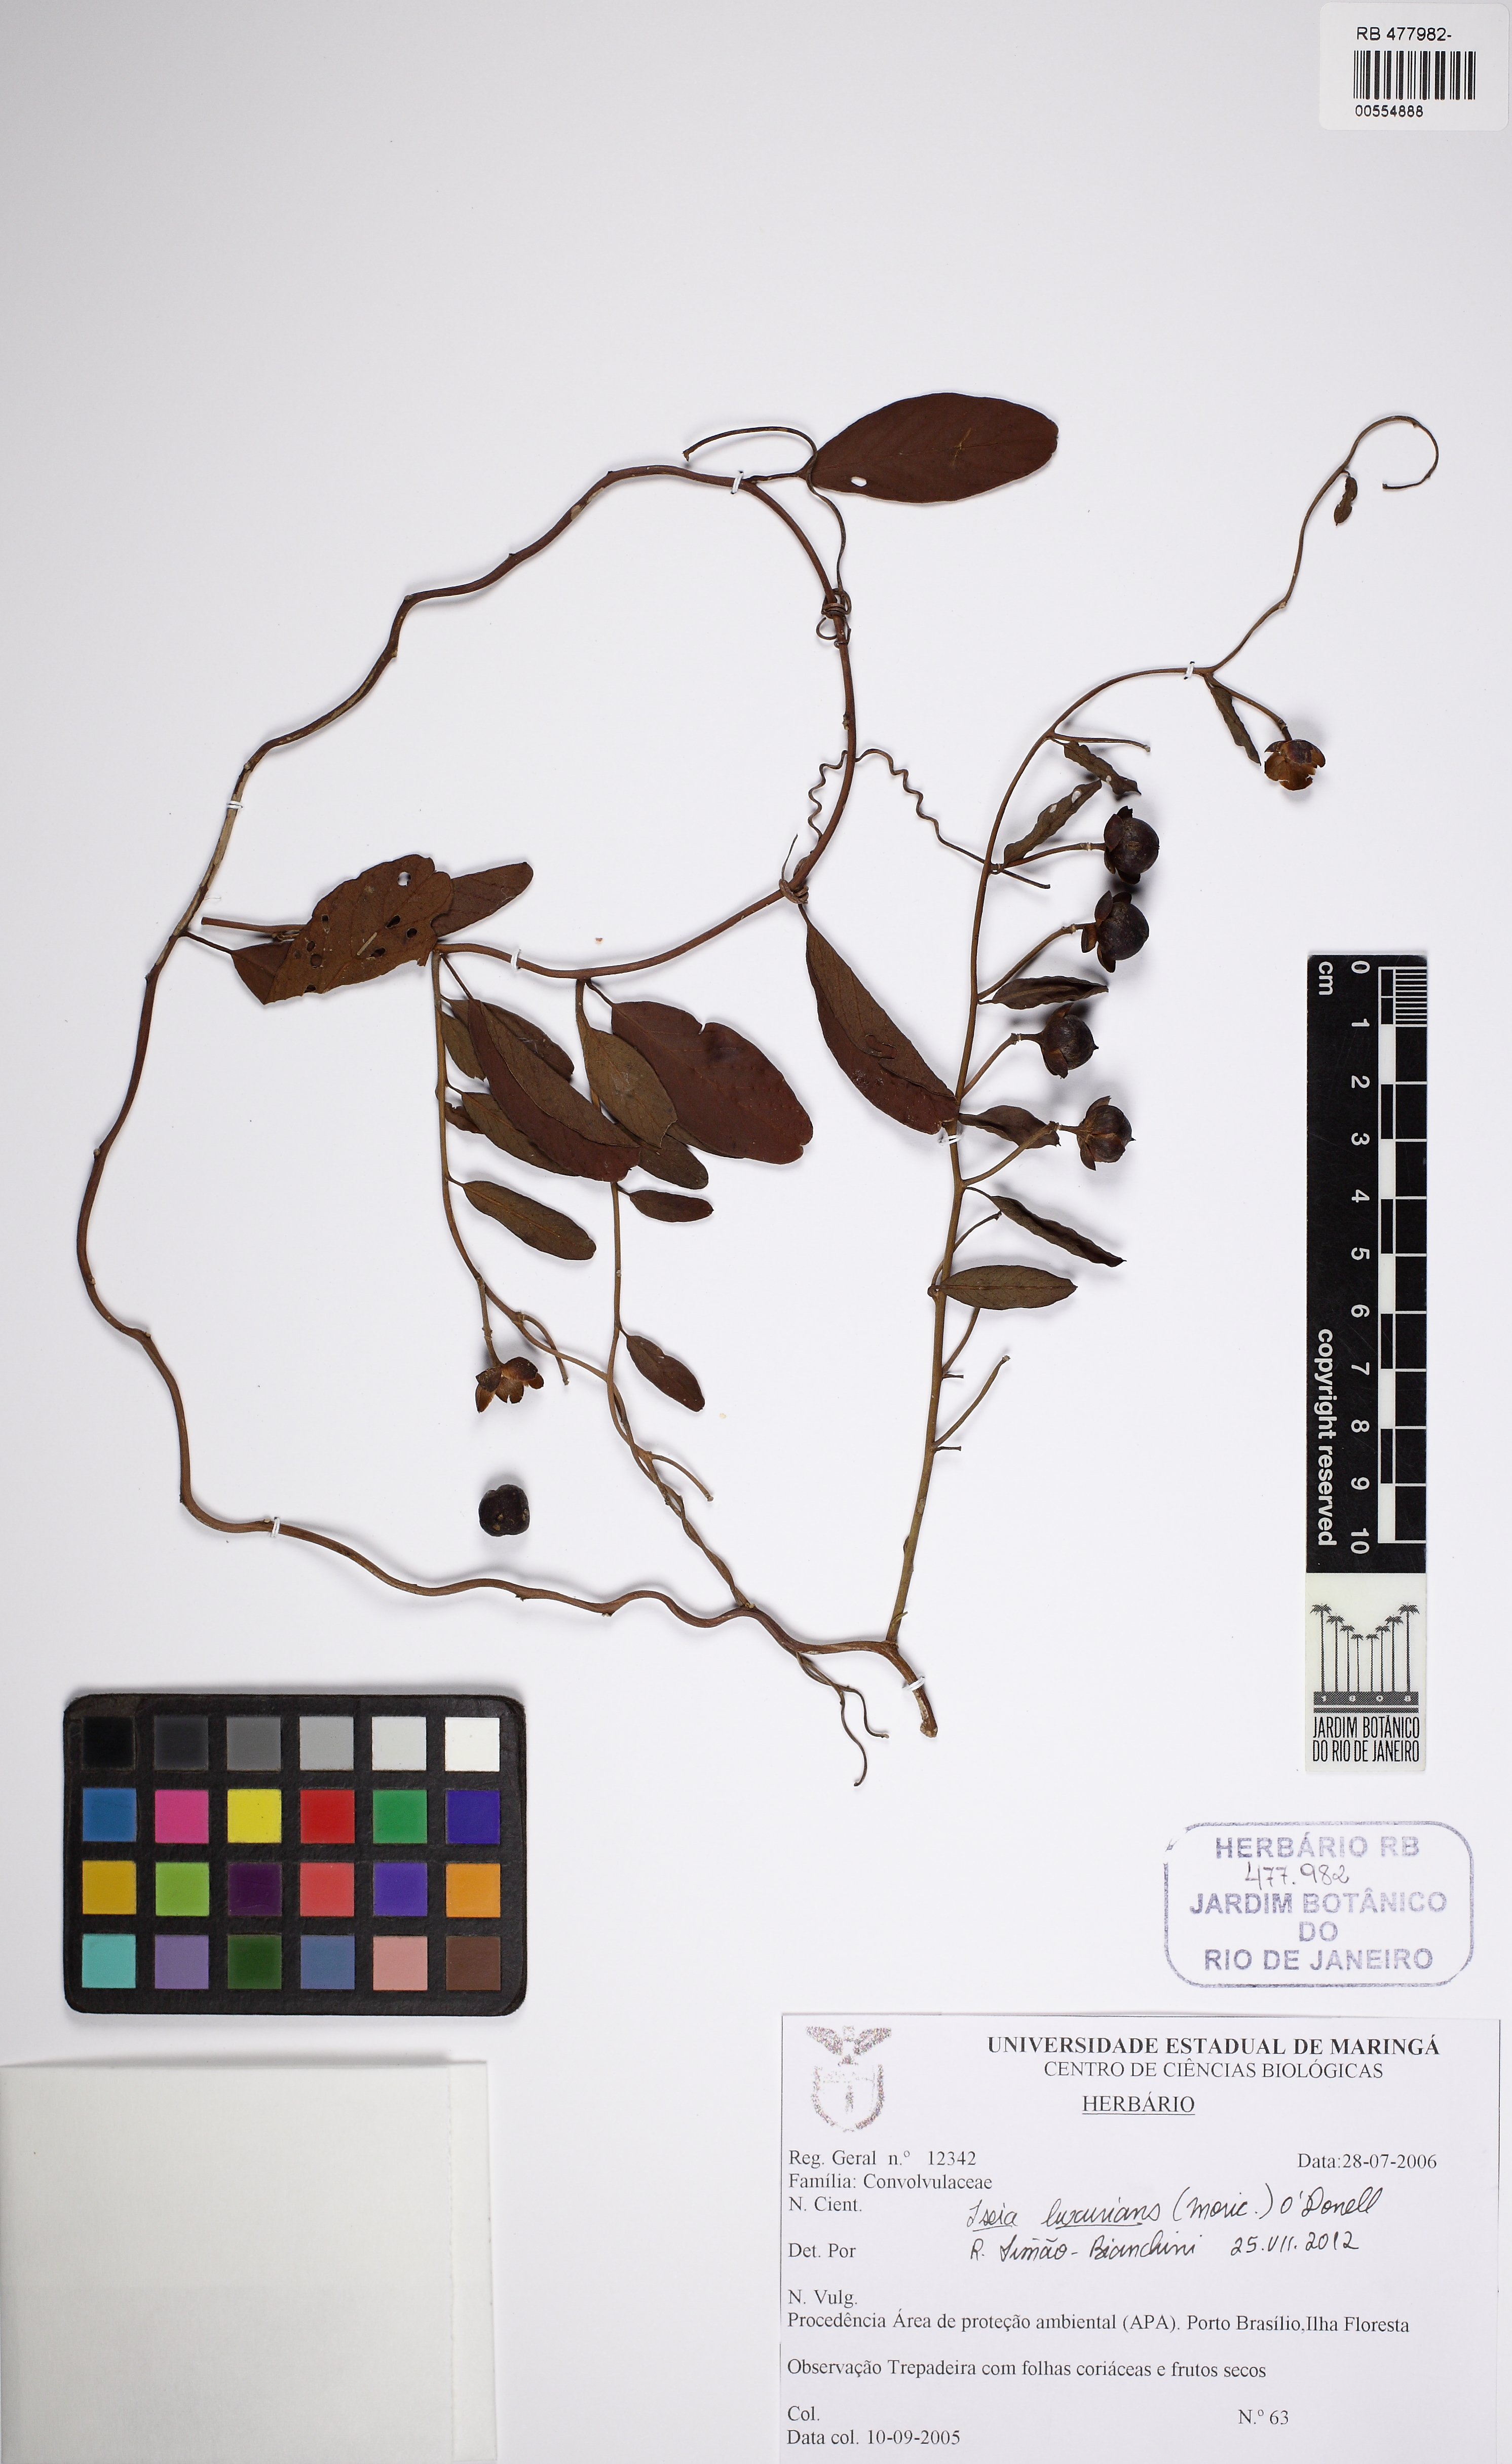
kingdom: Plantae
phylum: Tracheophyta
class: Magnoliopsida
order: Solanales
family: Convolvulaceae
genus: Aniseia
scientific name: Aniseia luxurians
